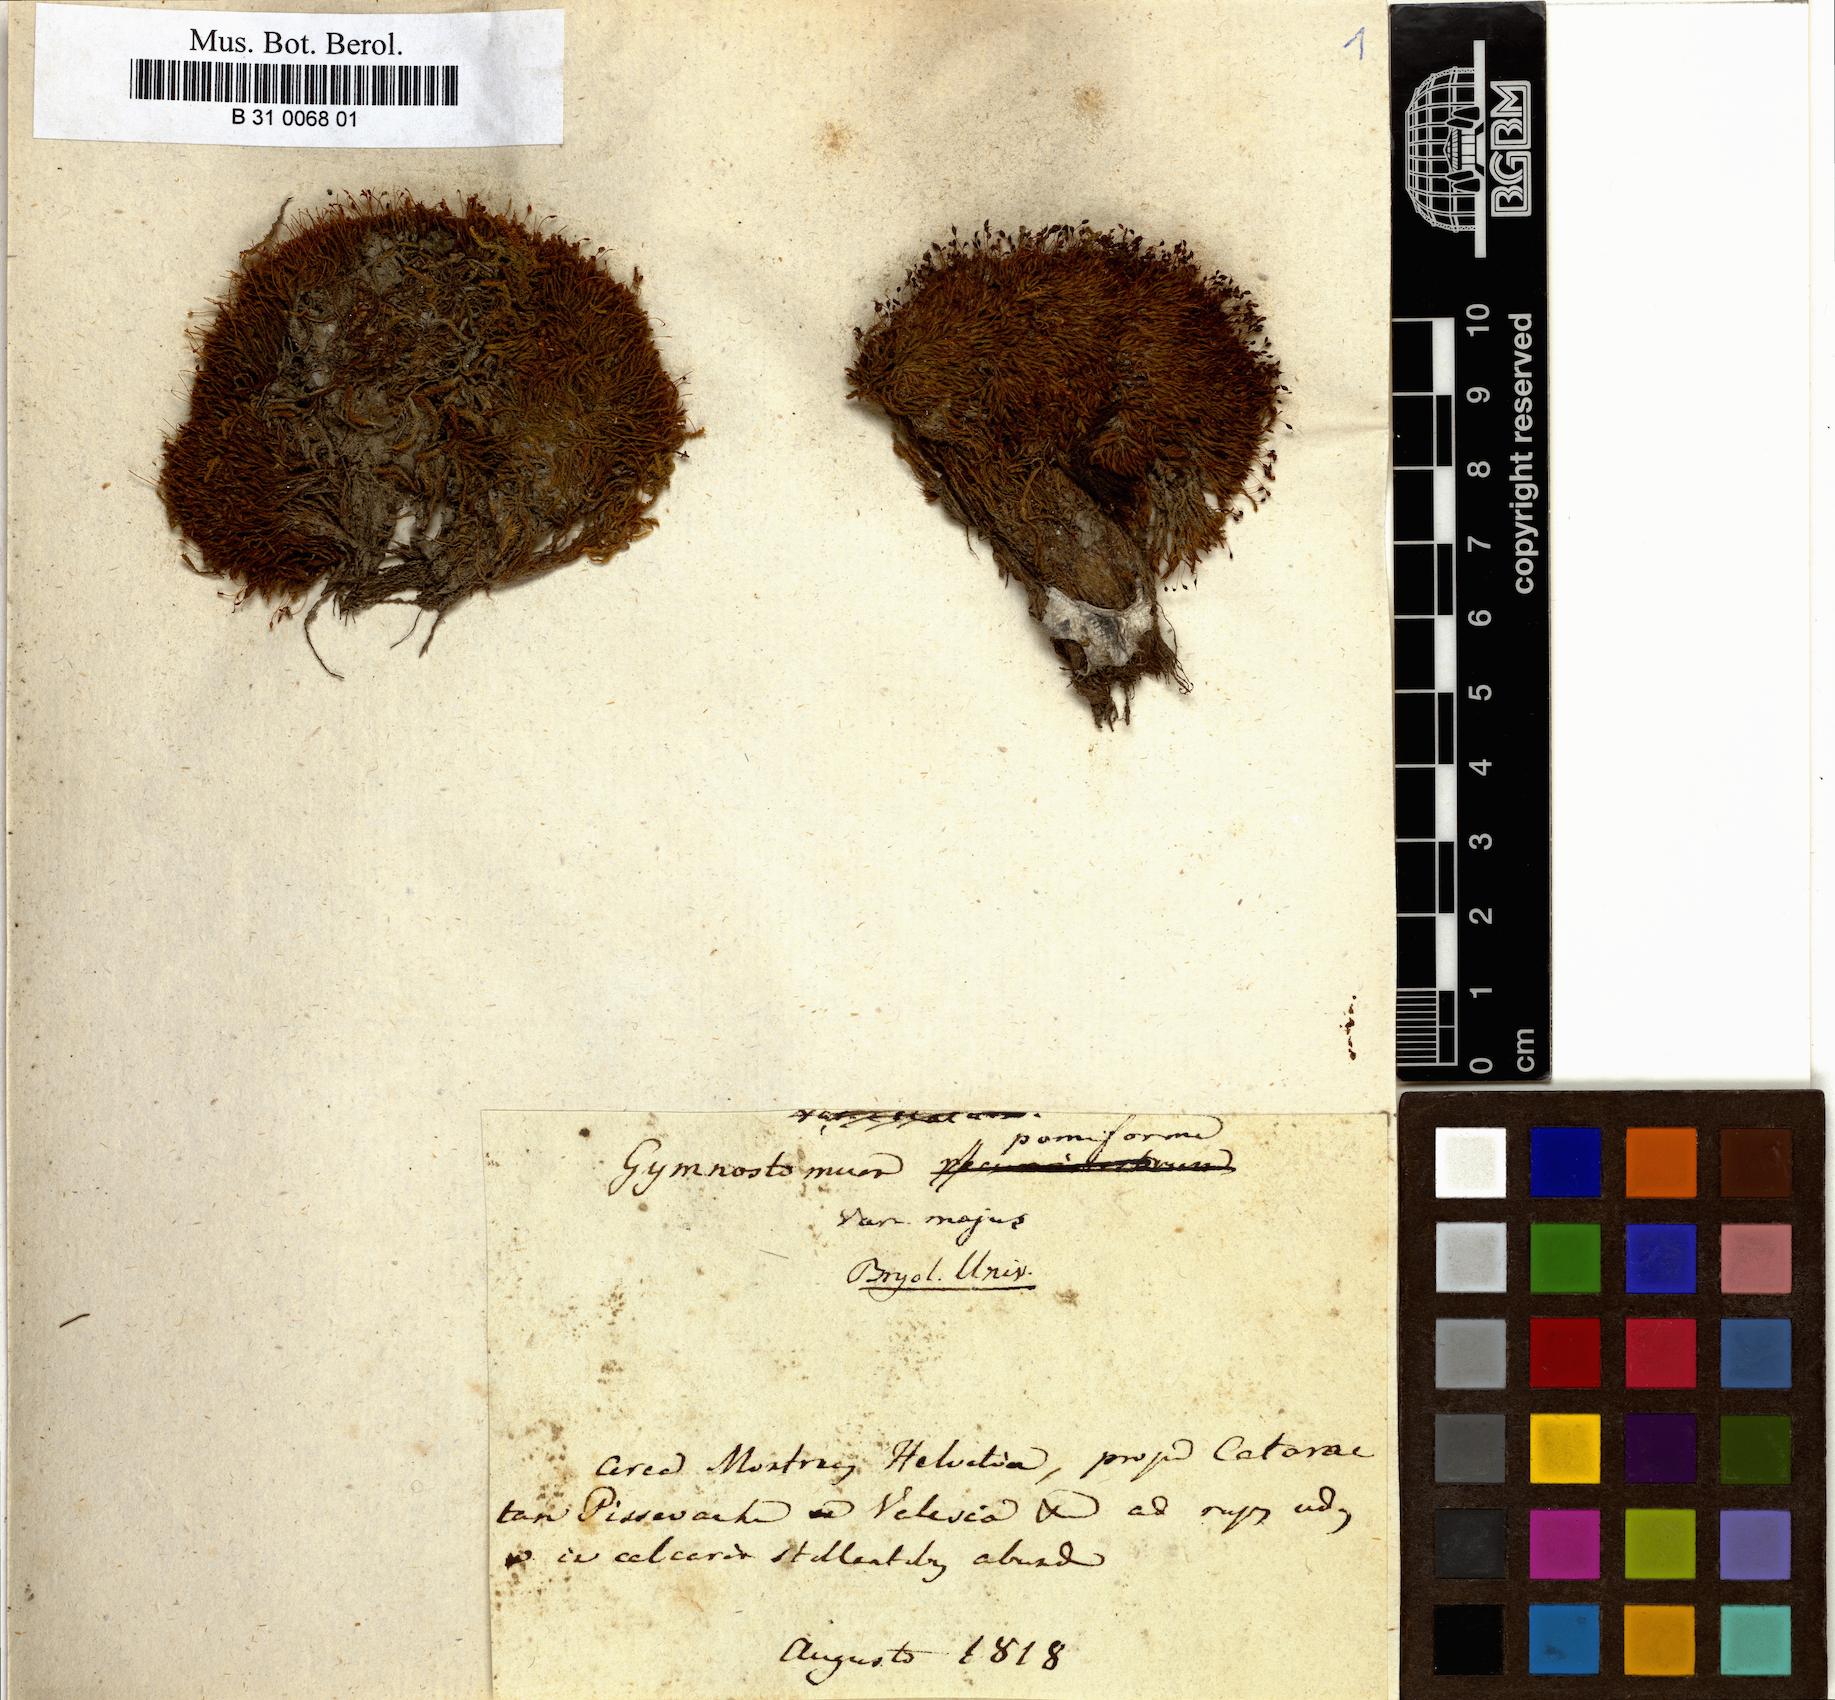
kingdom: Plantae
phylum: Bryophyta
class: Bryopsida
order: Pottiales
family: Pottiaceae
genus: Hymenostylium
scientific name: Hymenostylium recurvirostrum
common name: Hook-beak tufa-moss
